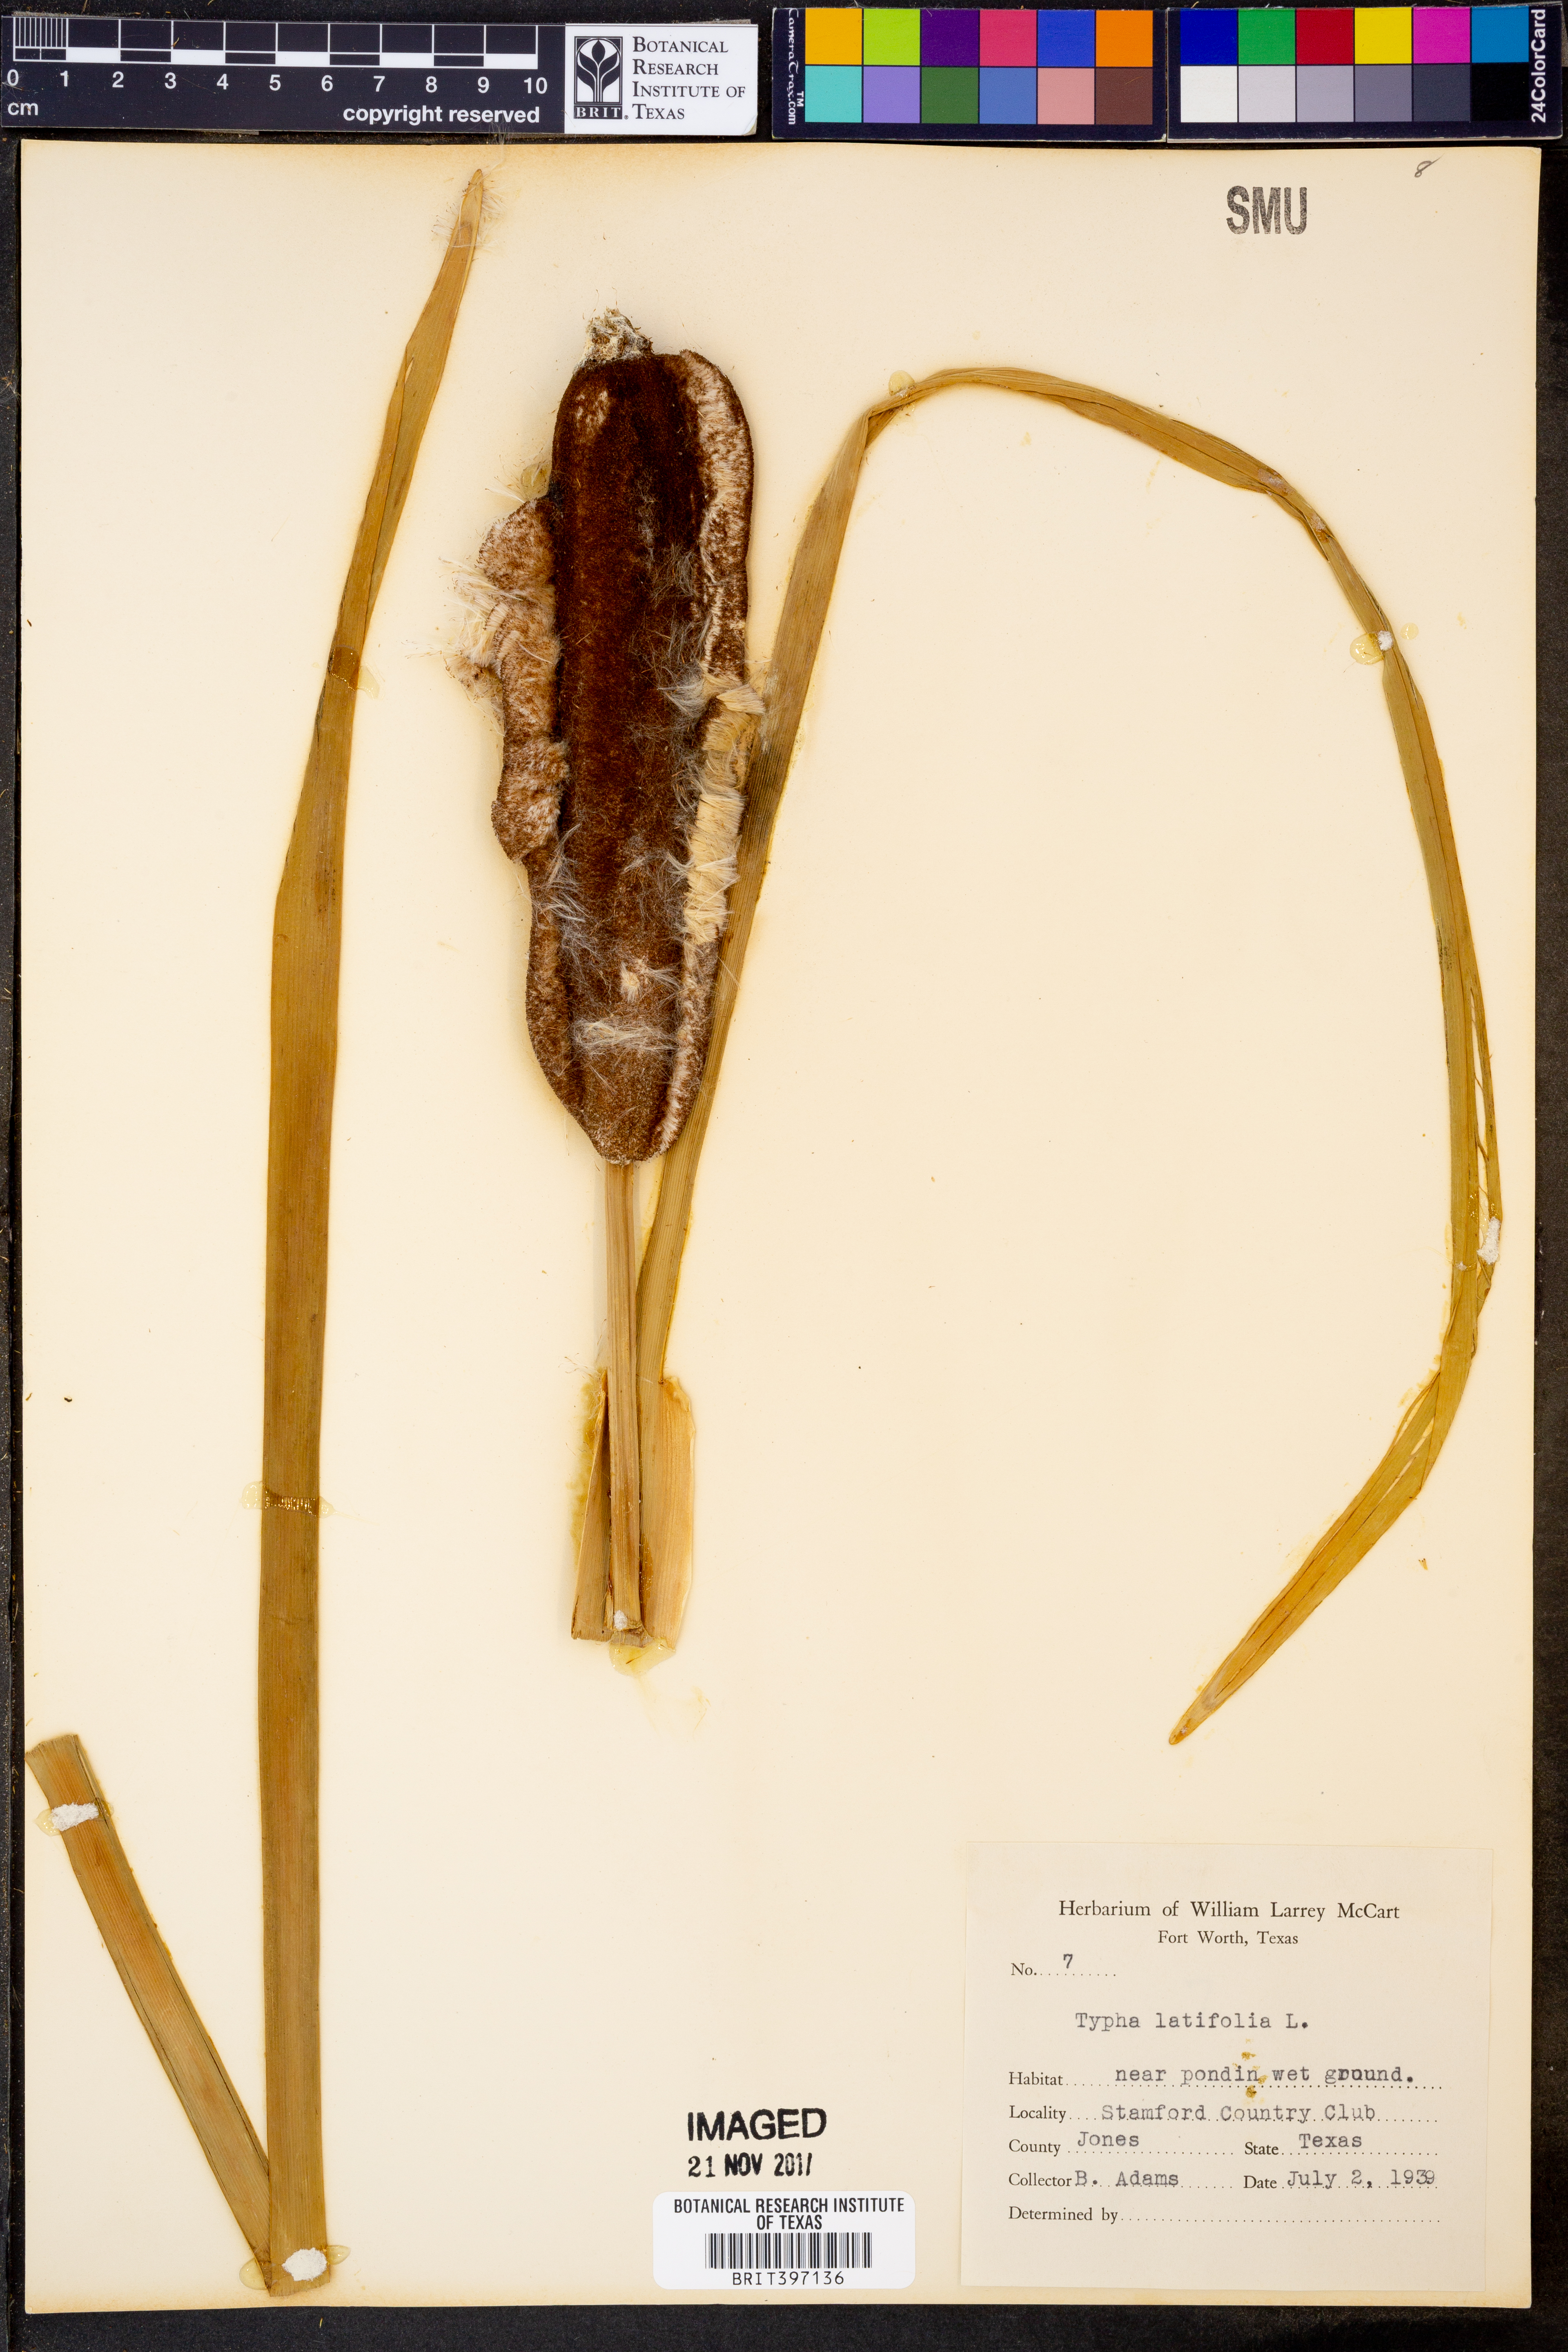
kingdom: Plantae
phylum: Tracheophyta
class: Liliopsida
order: Poales
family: Typhaceae
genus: Typha
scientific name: Typha latifolia
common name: Broadleaf cattail
